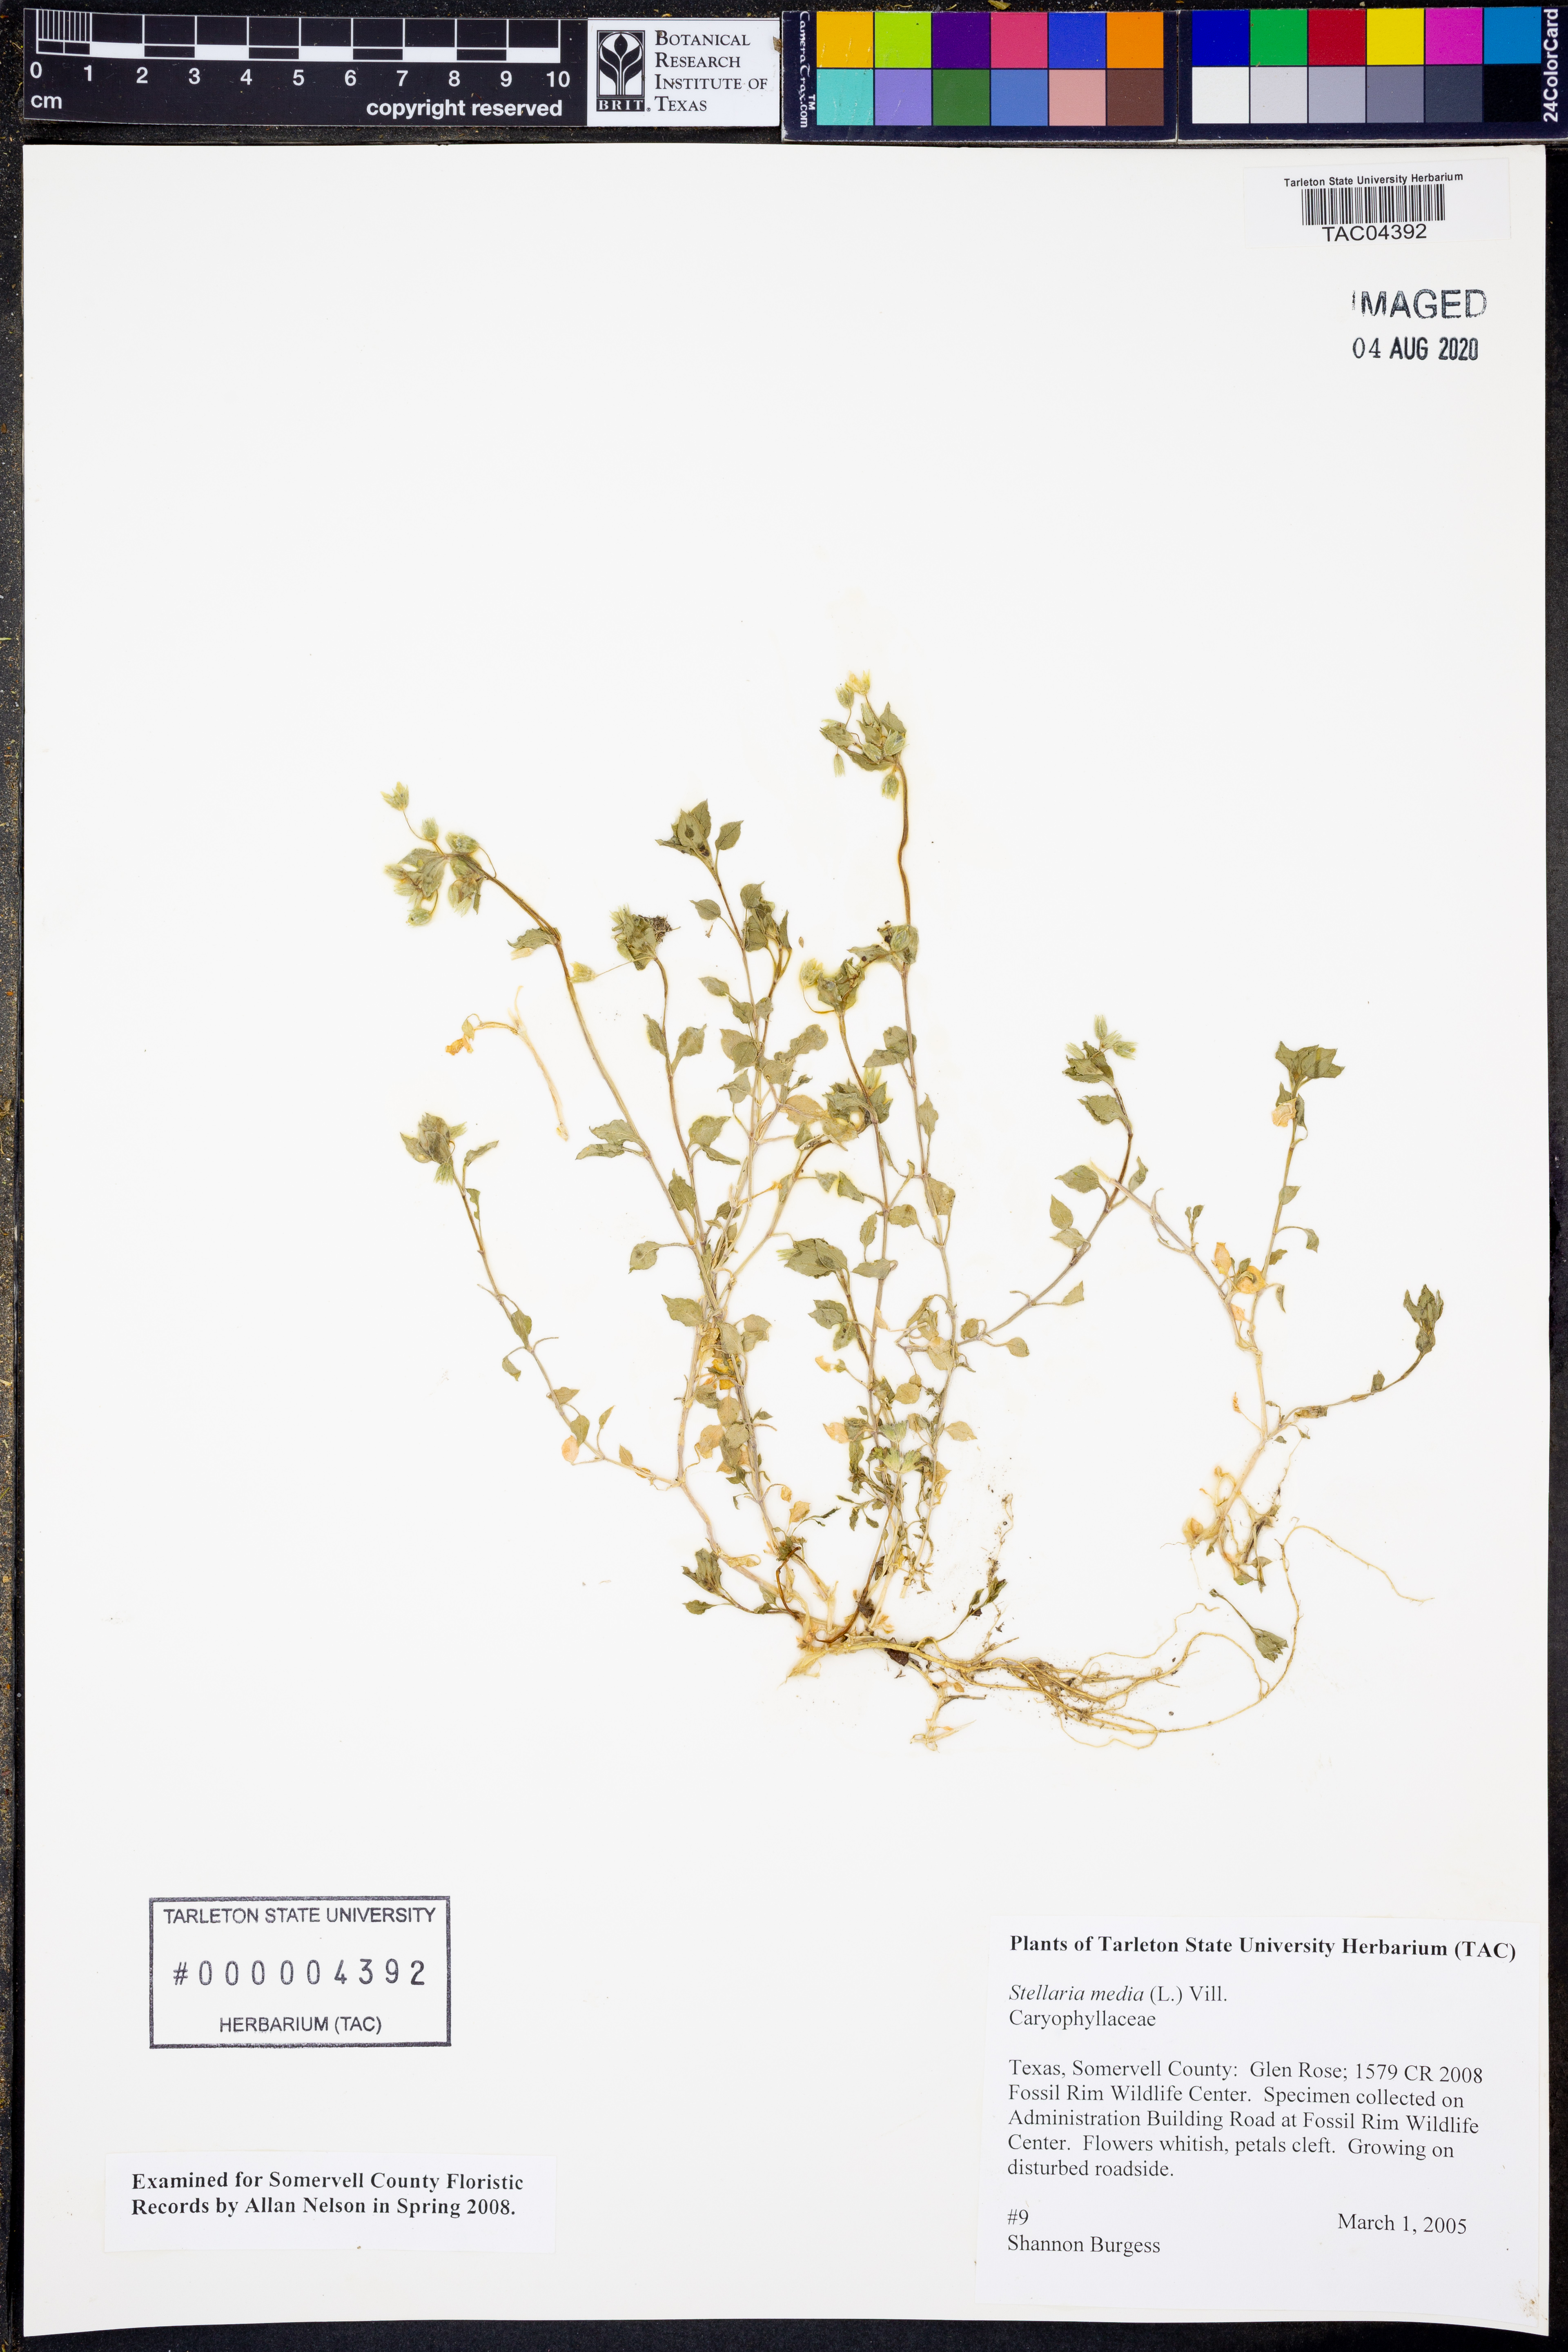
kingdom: Plantae
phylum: Tracheophyta
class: Magnoliopsida
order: Caryophyllales
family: Caryophyllaceae
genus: Stellaria
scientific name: Stellaria media
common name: Common chickweed
